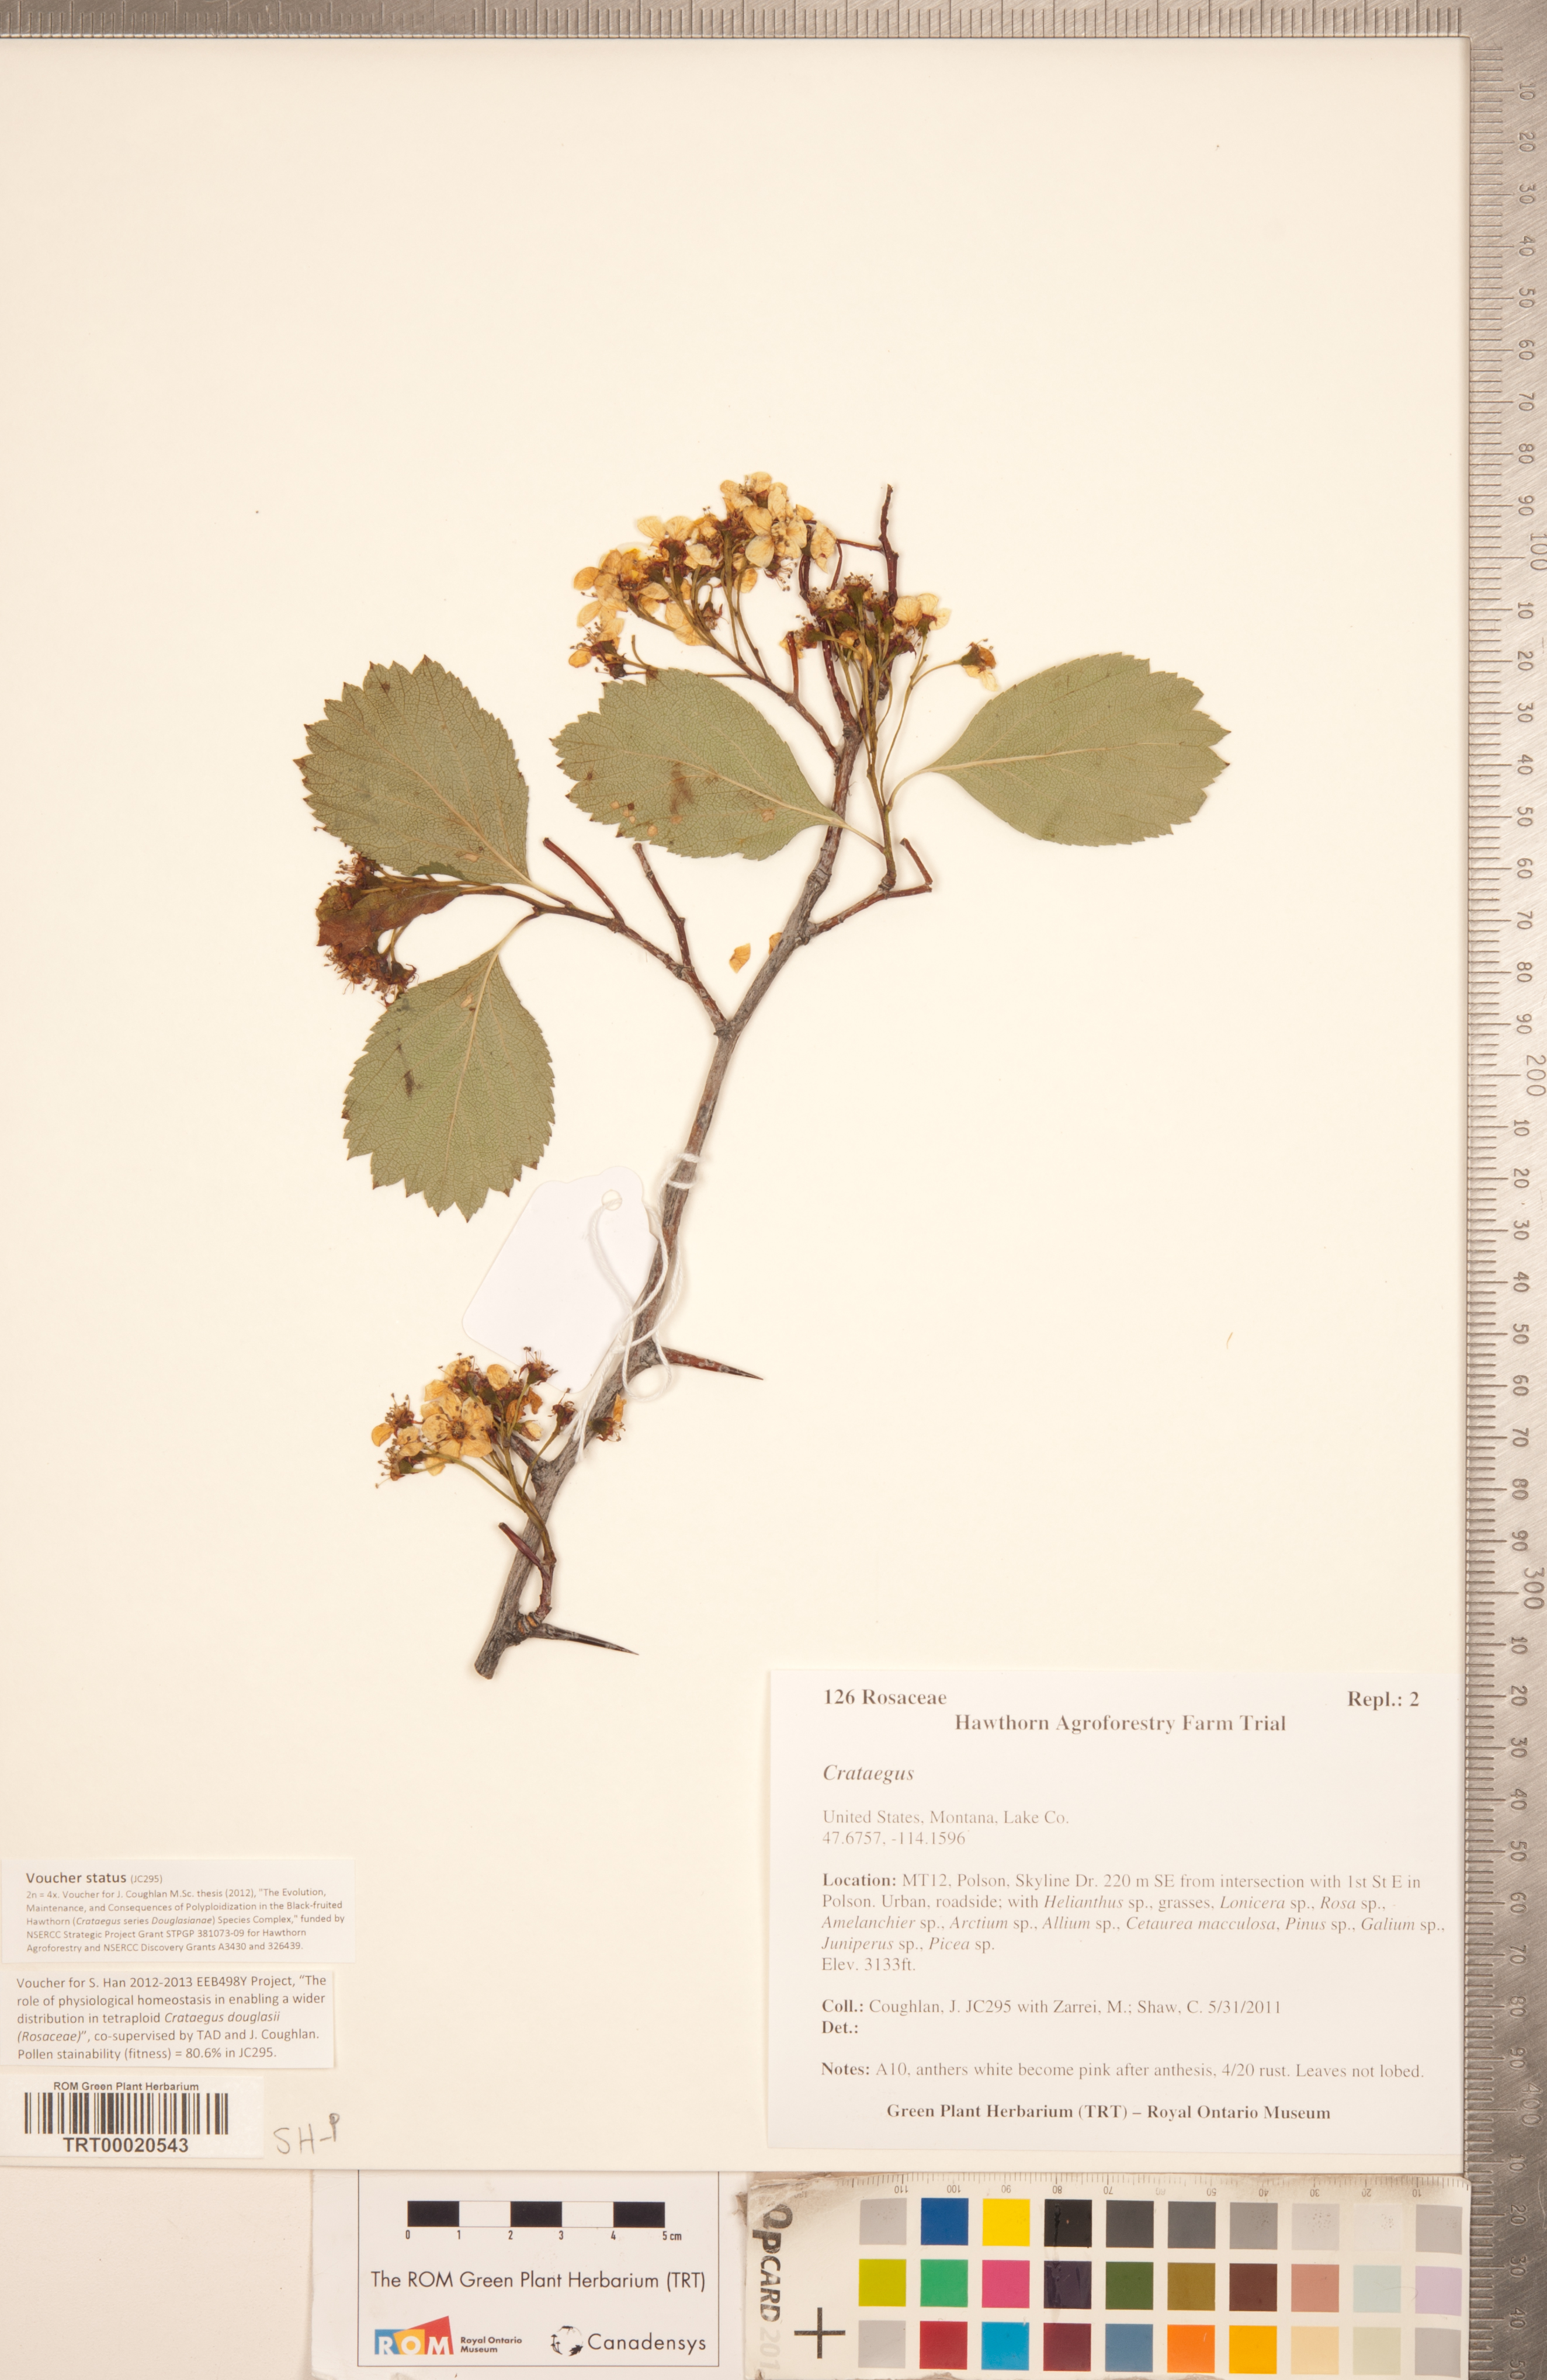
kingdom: Plantae
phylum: Tracheophyta
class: Magnoliopsida
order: Rosales
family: Rosaceae
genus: Crataegus
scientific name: Crataegus phippsii
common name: Phipps' hawthorn
